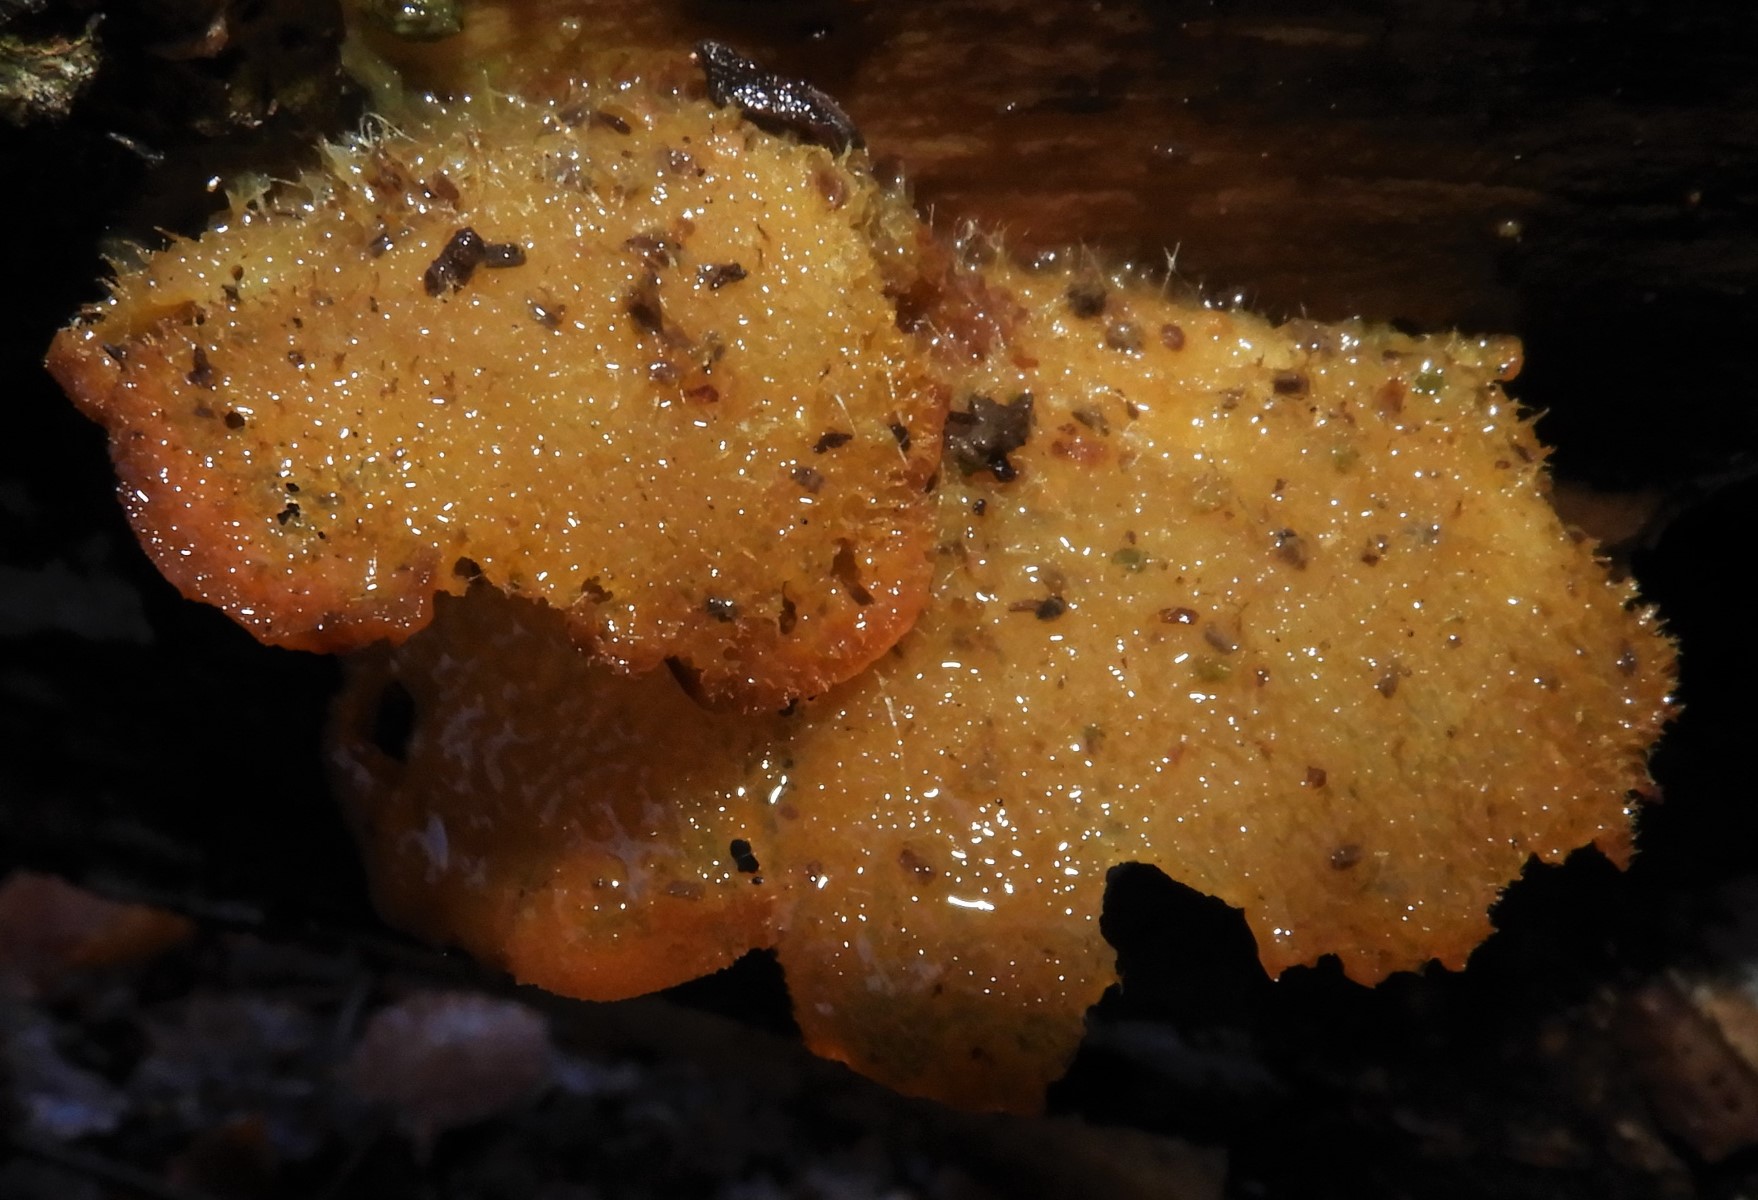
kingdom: Fungi
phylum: Basidiomycota
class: Agaricomycetes
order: Agaricales
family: Phyllotopsidaceae
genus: Phyllotopsis
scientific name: Phyllotopsis nidulans
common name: okkerblad
